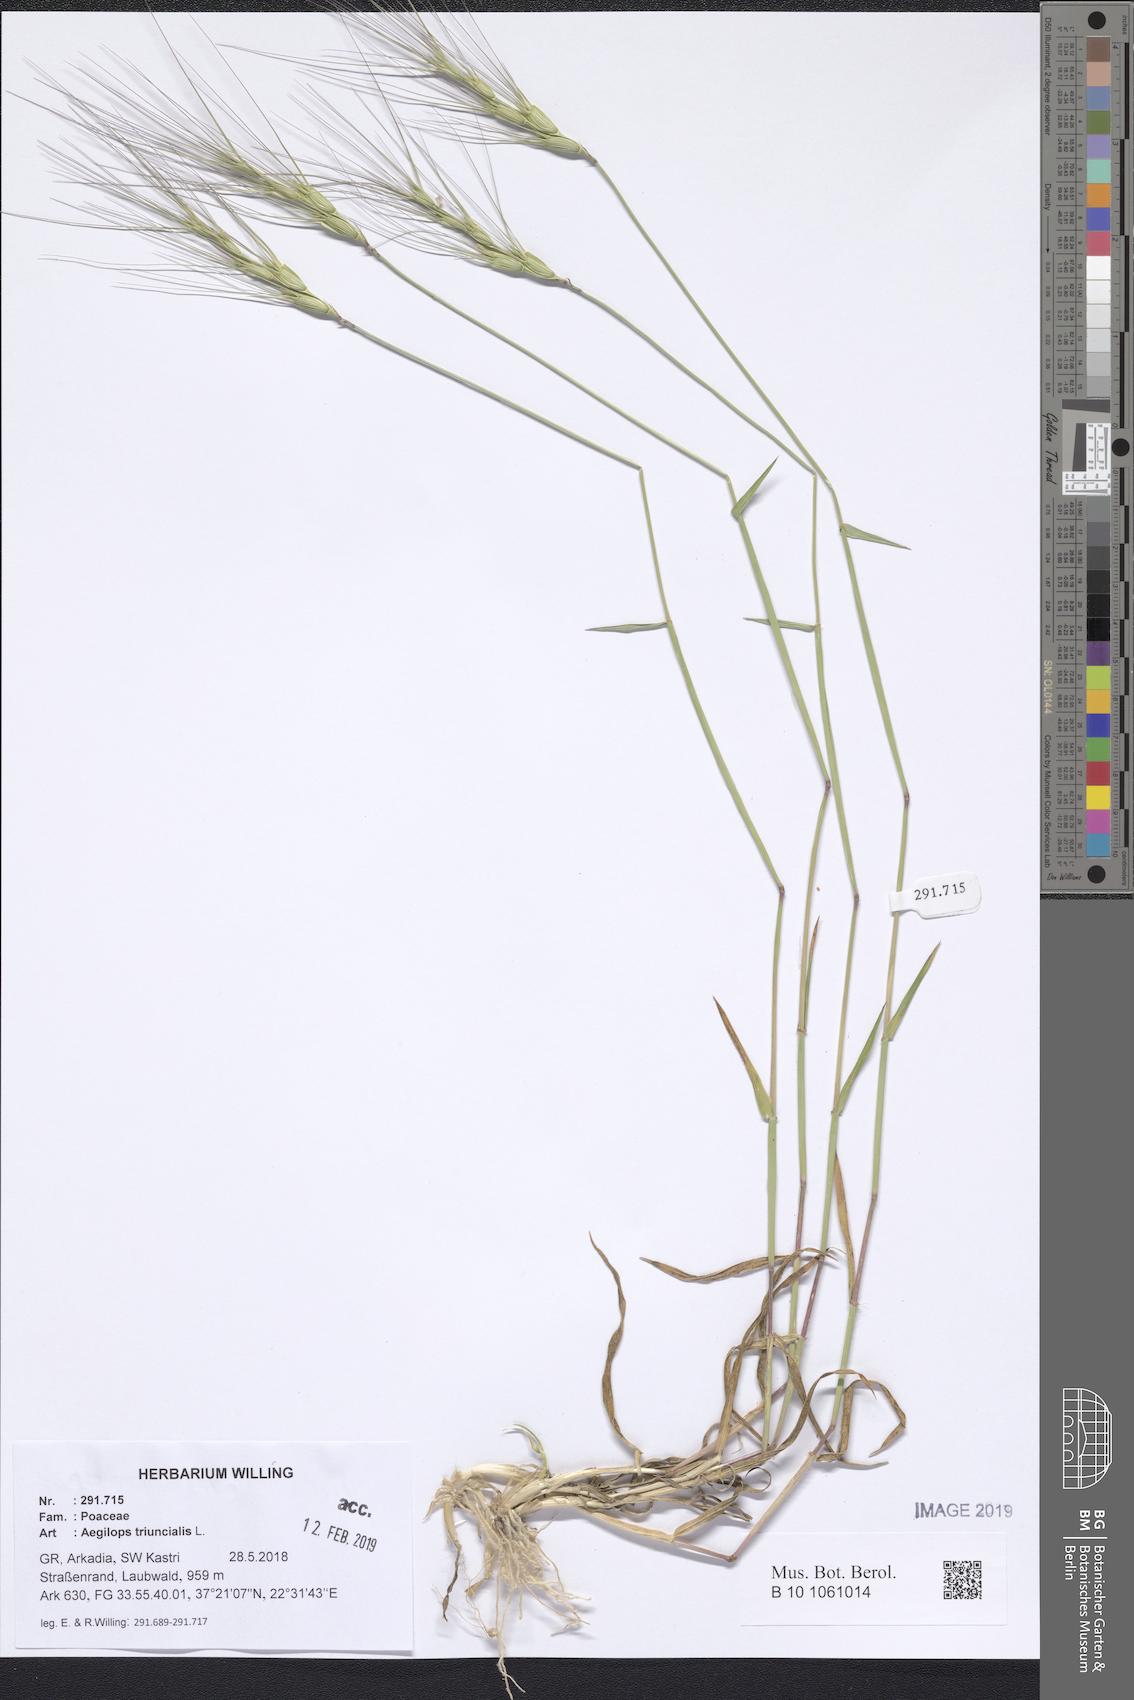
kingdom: Plantae
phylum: Tracheophyta
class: Liliopsida
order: Poales
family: Poaceae
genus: Aegilops
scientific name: Aegilops triuncialis
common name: Barb goat grass
